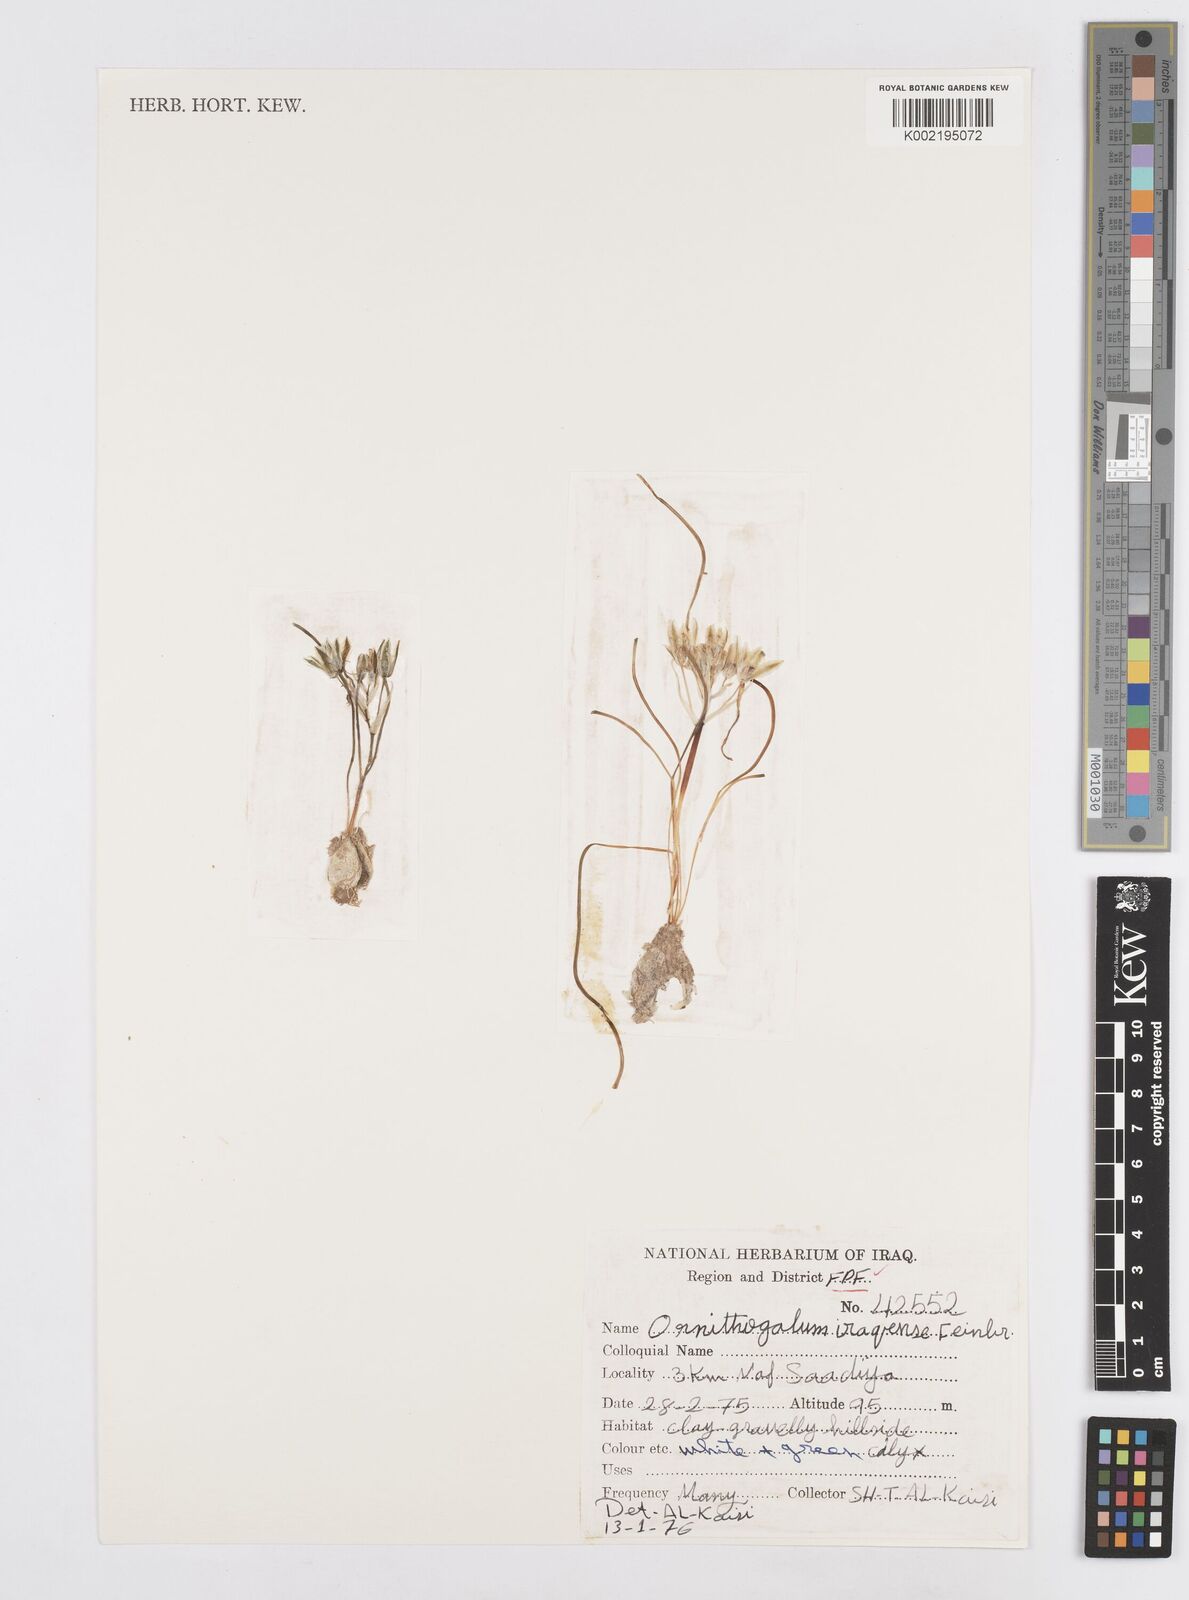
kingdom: Plantae
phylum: Tracheophyta
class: Liliopsida
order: Asparagales
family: Asparagaceae
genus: Ornithogalum
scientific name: Ornithogalum iraqense
